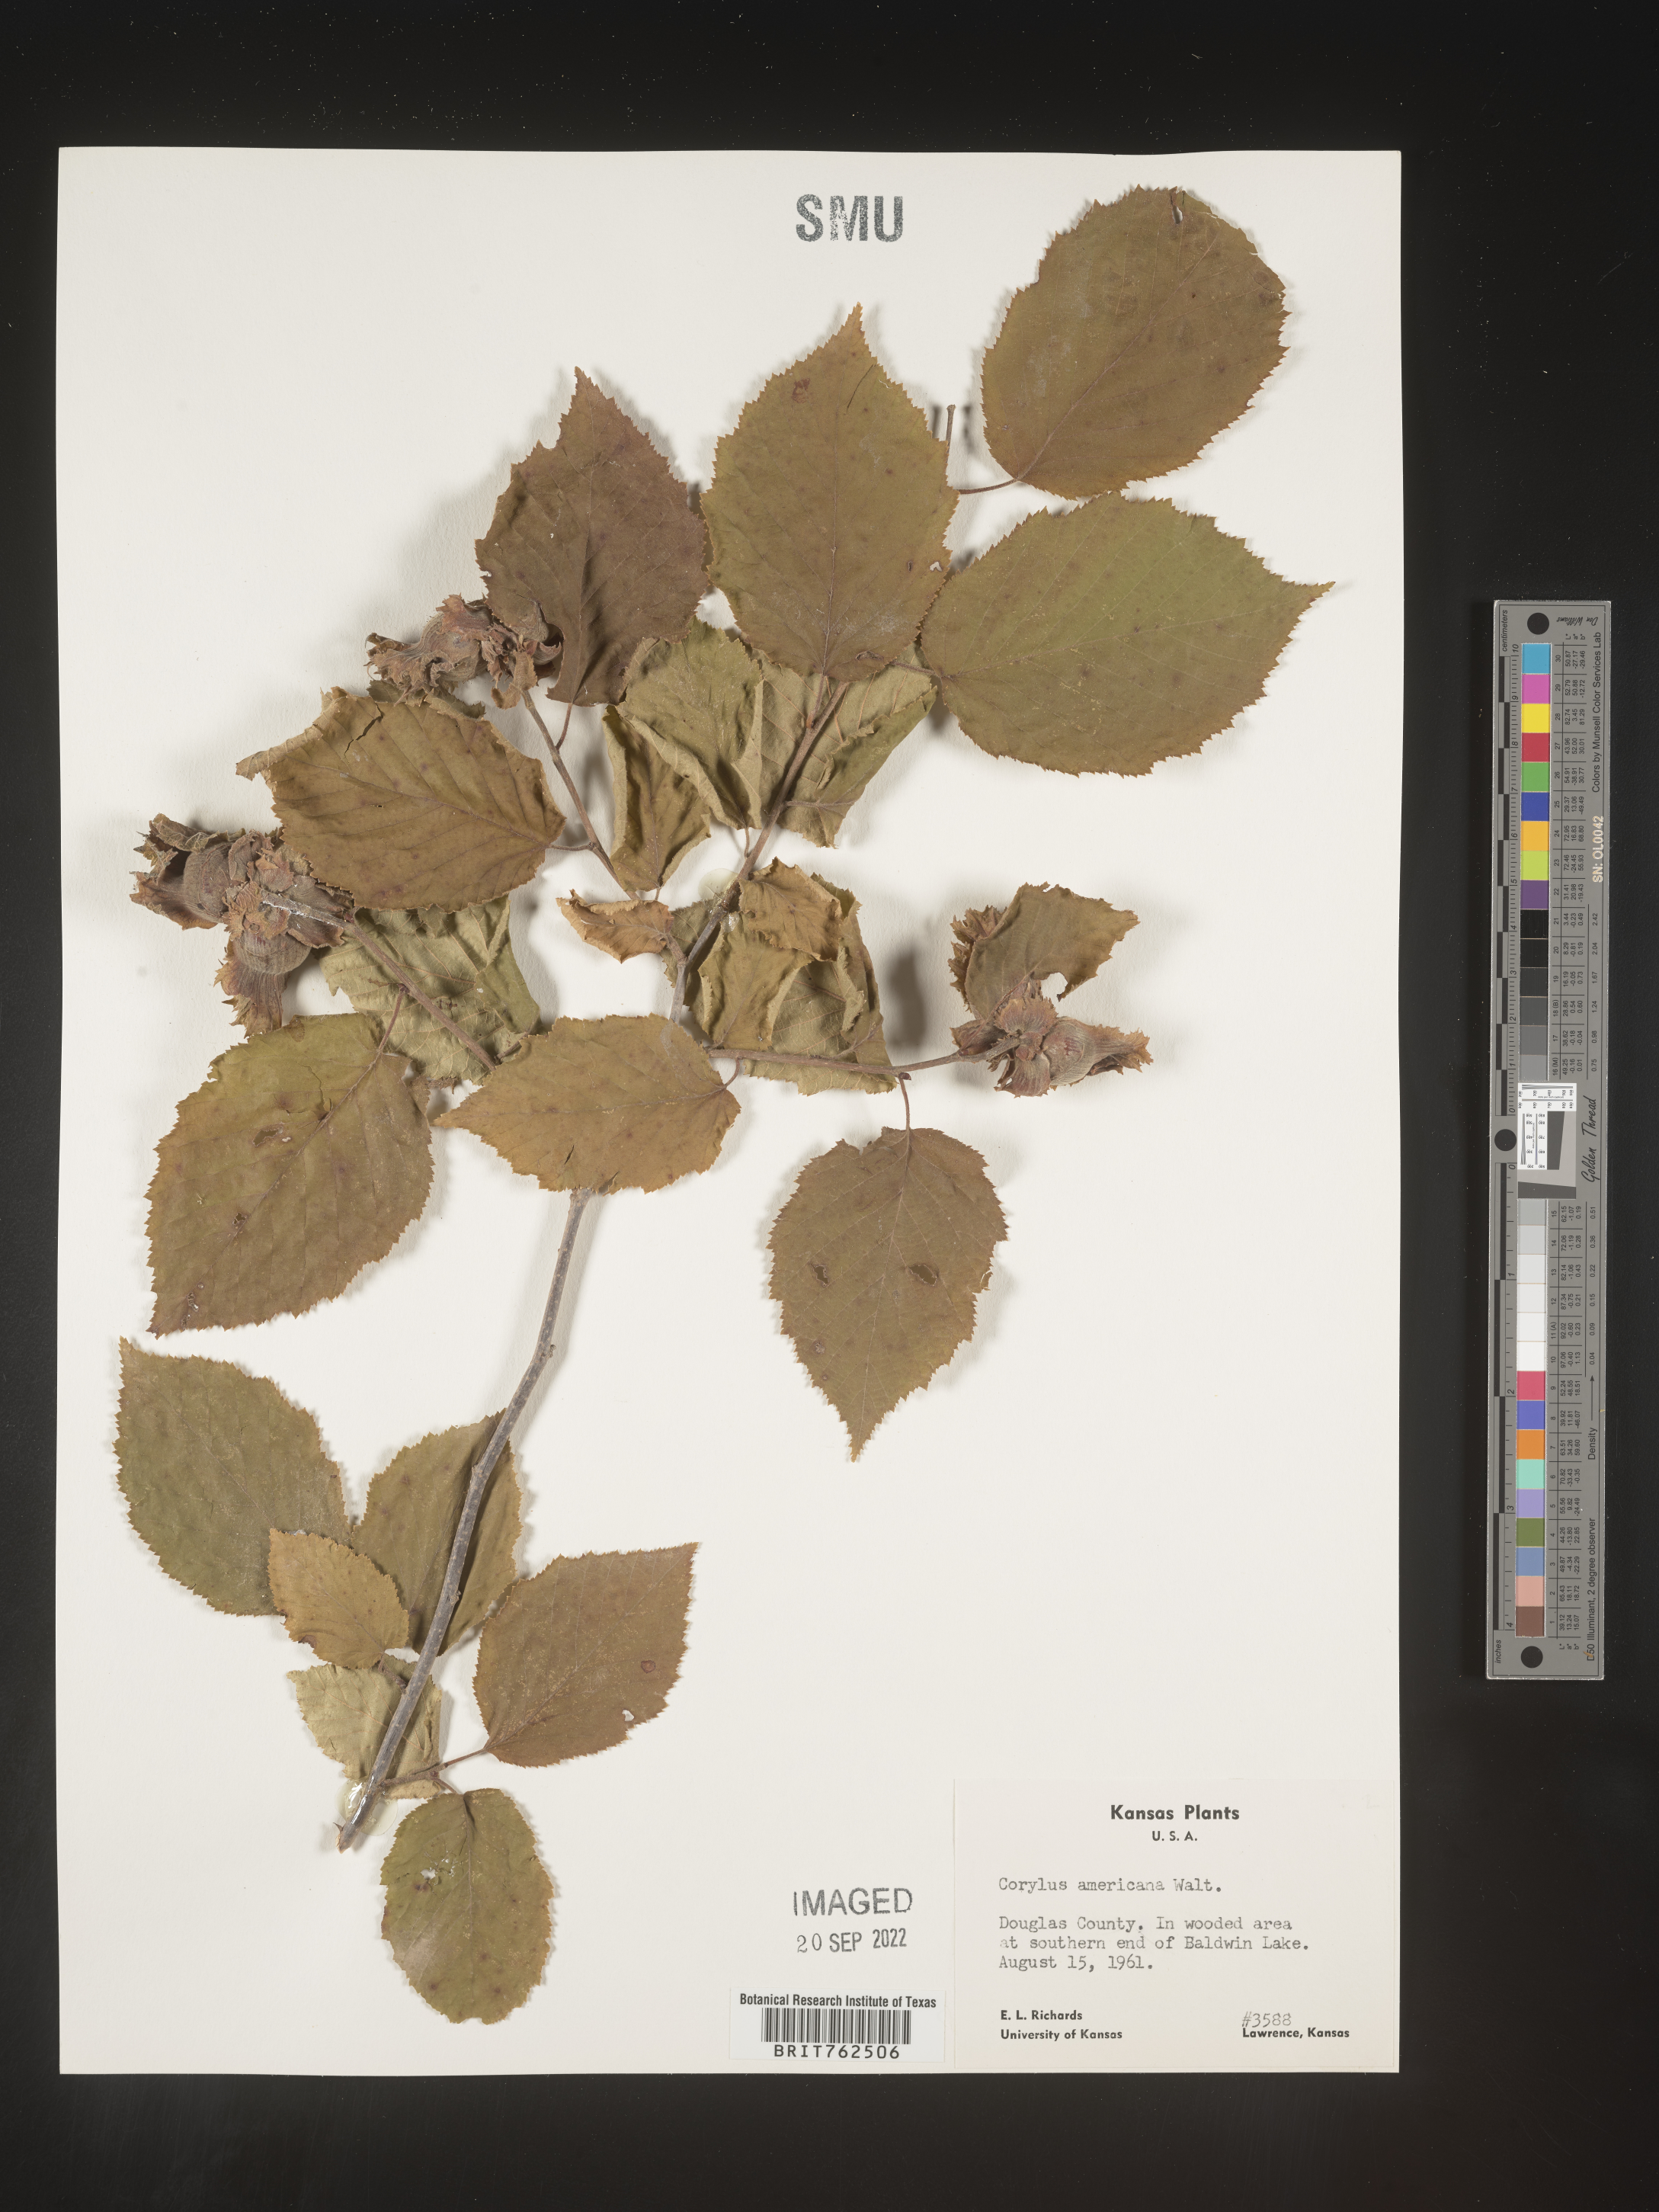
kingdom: Plantae
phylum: Tracheophyta
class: Magnoliopsida
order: Fagales
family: Betulaceae
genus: Corylus
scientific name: Corylus americana
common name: American hazel
